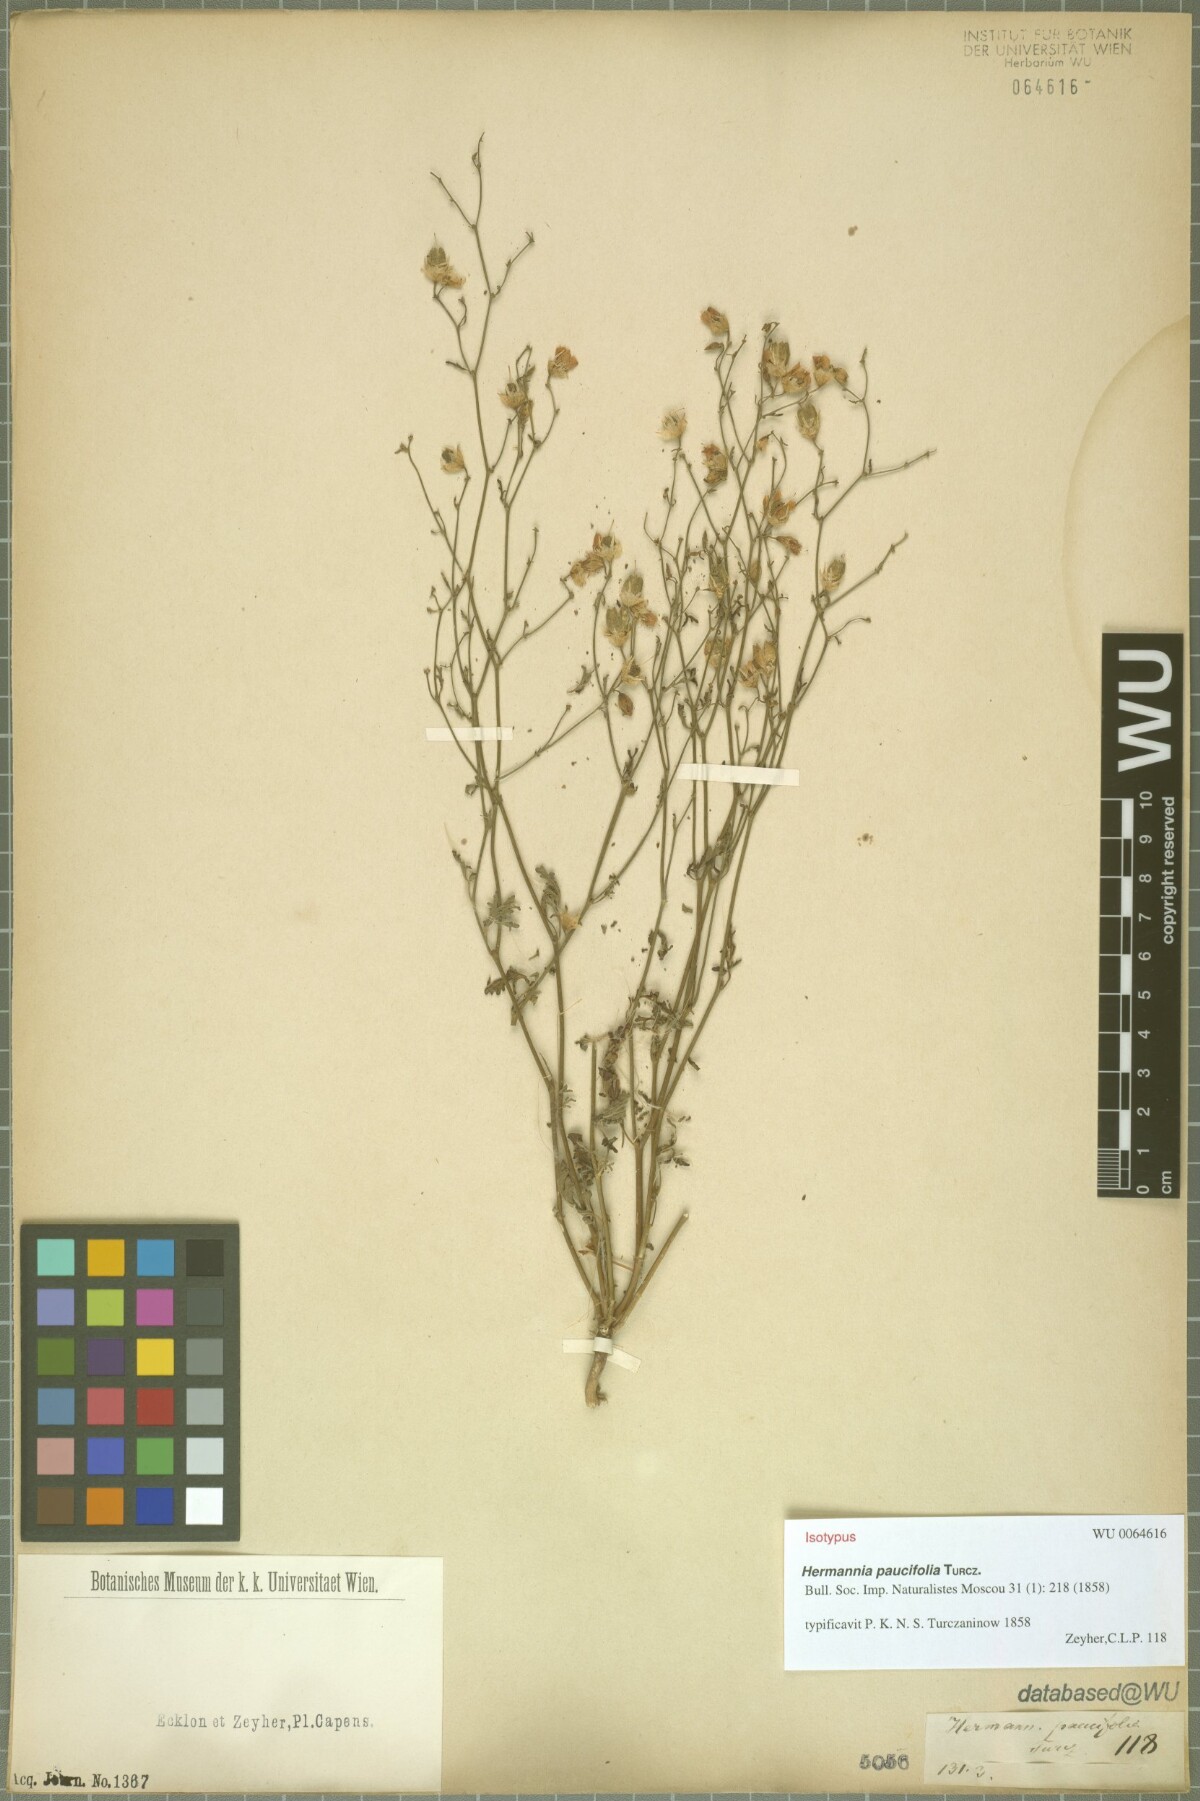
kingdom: Plantae
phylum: Tracheophyta
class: Magnoliopsida
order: Malvales
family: Malvaceae
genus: Hermannia
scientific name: Hermannia paucifolia
